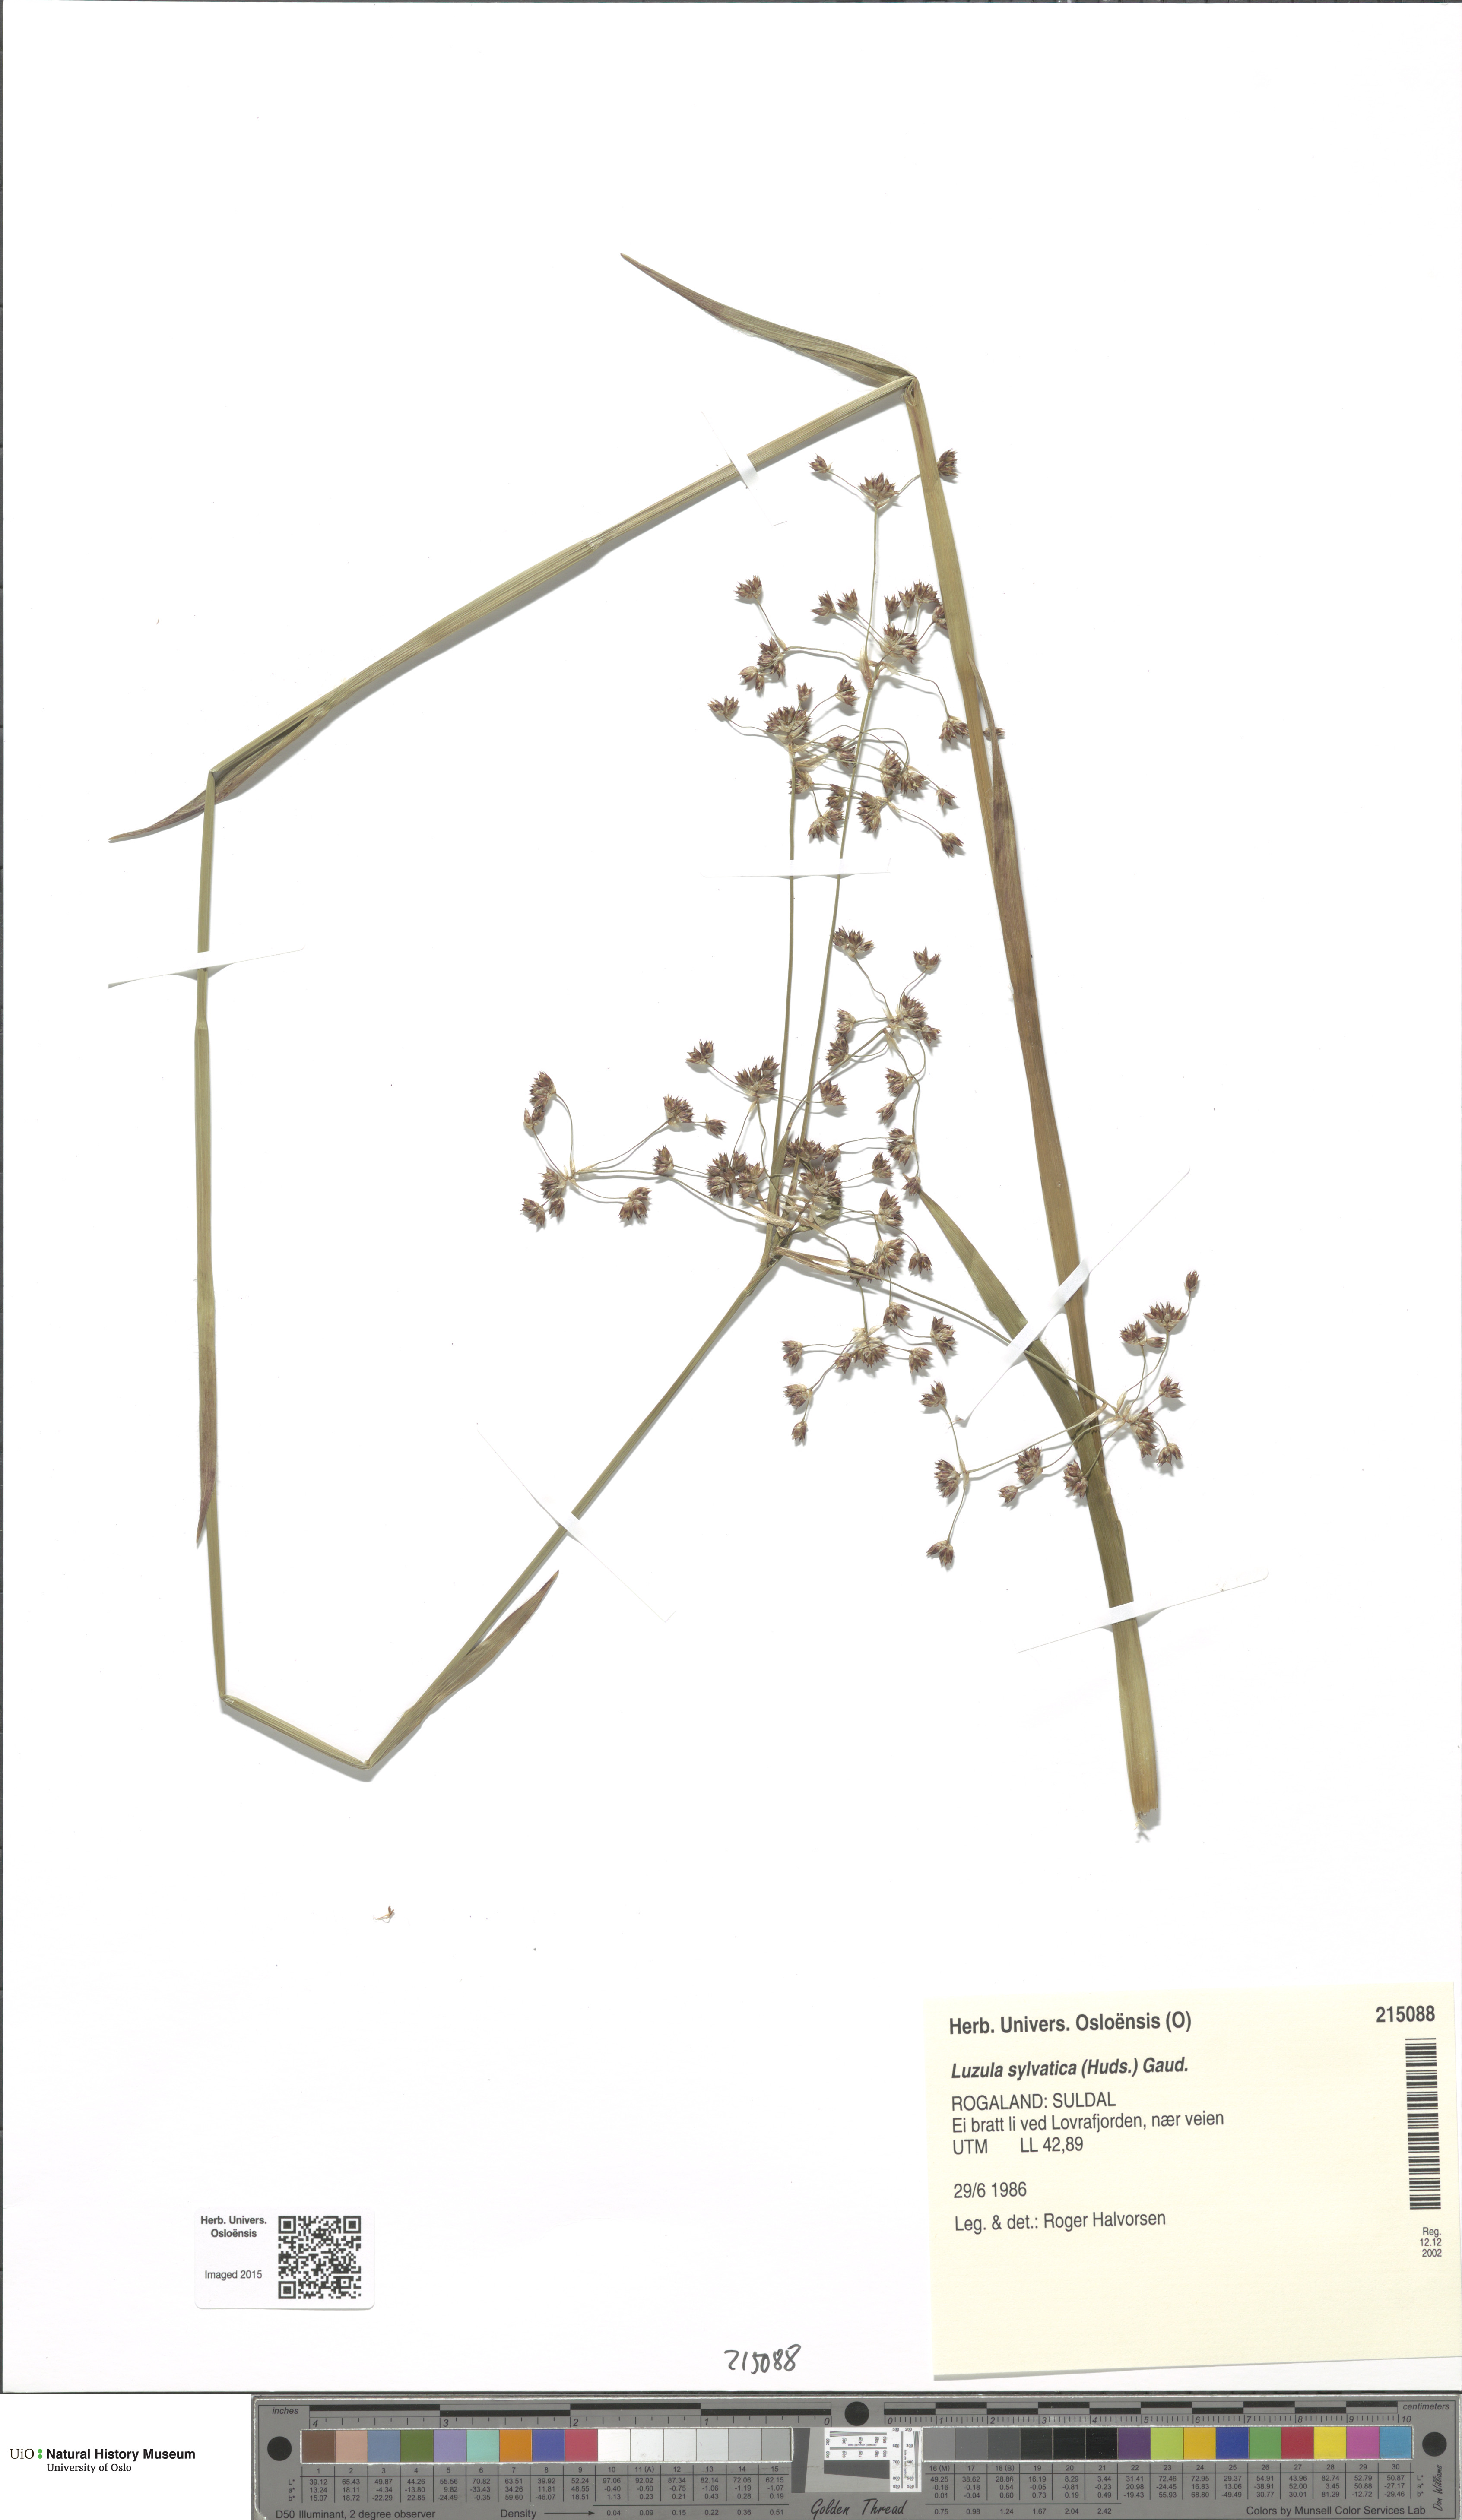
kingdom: Plantae
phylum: Tracheophyta
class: Liliopsida
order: Poales
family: Juncaceae
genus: Luzula
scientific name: Luzula sylvatica
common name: Great wood-rush
